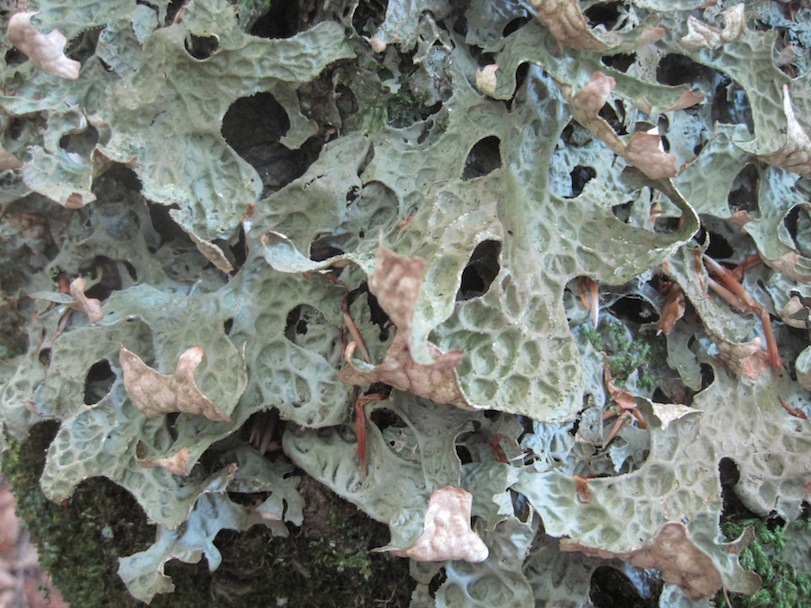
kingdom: Fungi
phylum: Ascomycota
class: Lecanoromycetes
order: Peltigerales
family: Lobariaceae
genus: Lobaria
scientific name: Lobaria pulmonaria
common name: almindelig lungelav
